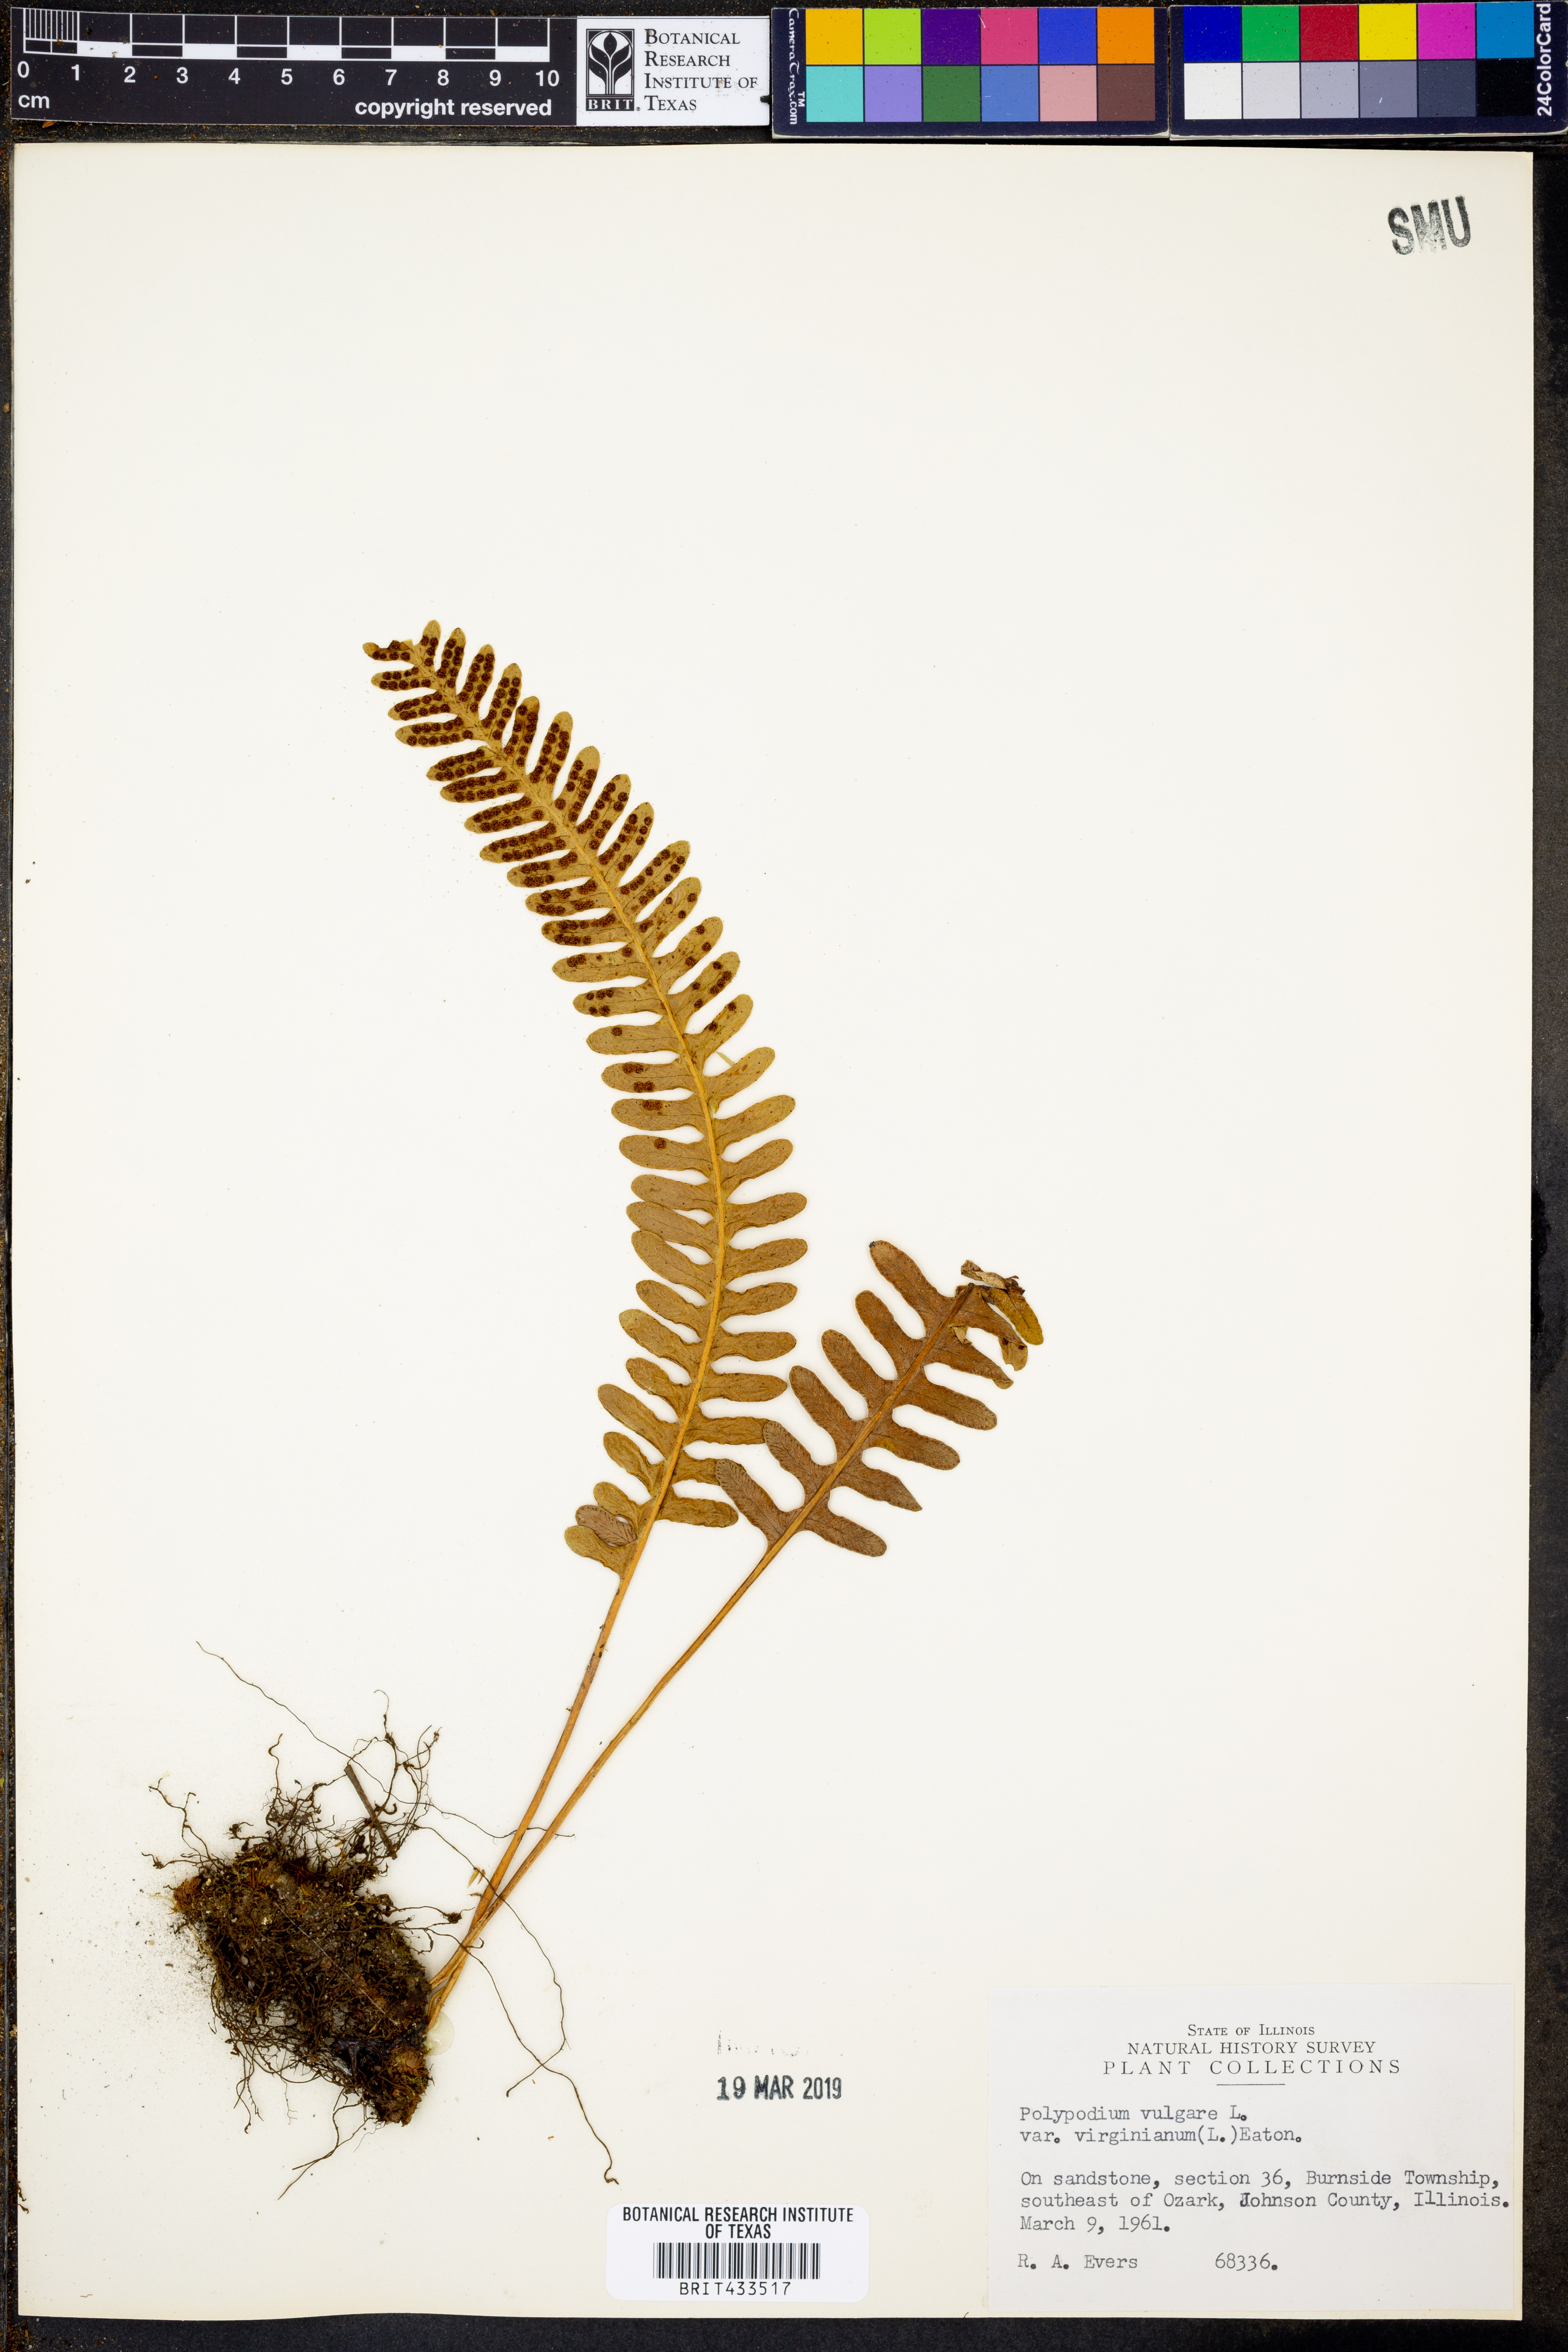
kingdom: Plantae
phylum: Tracheophyta
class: Polypodiopsida
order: Polypodiales
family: Polypodiaceae
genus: Polypodium
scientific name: Polypodium virginianum
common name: American wall fern
